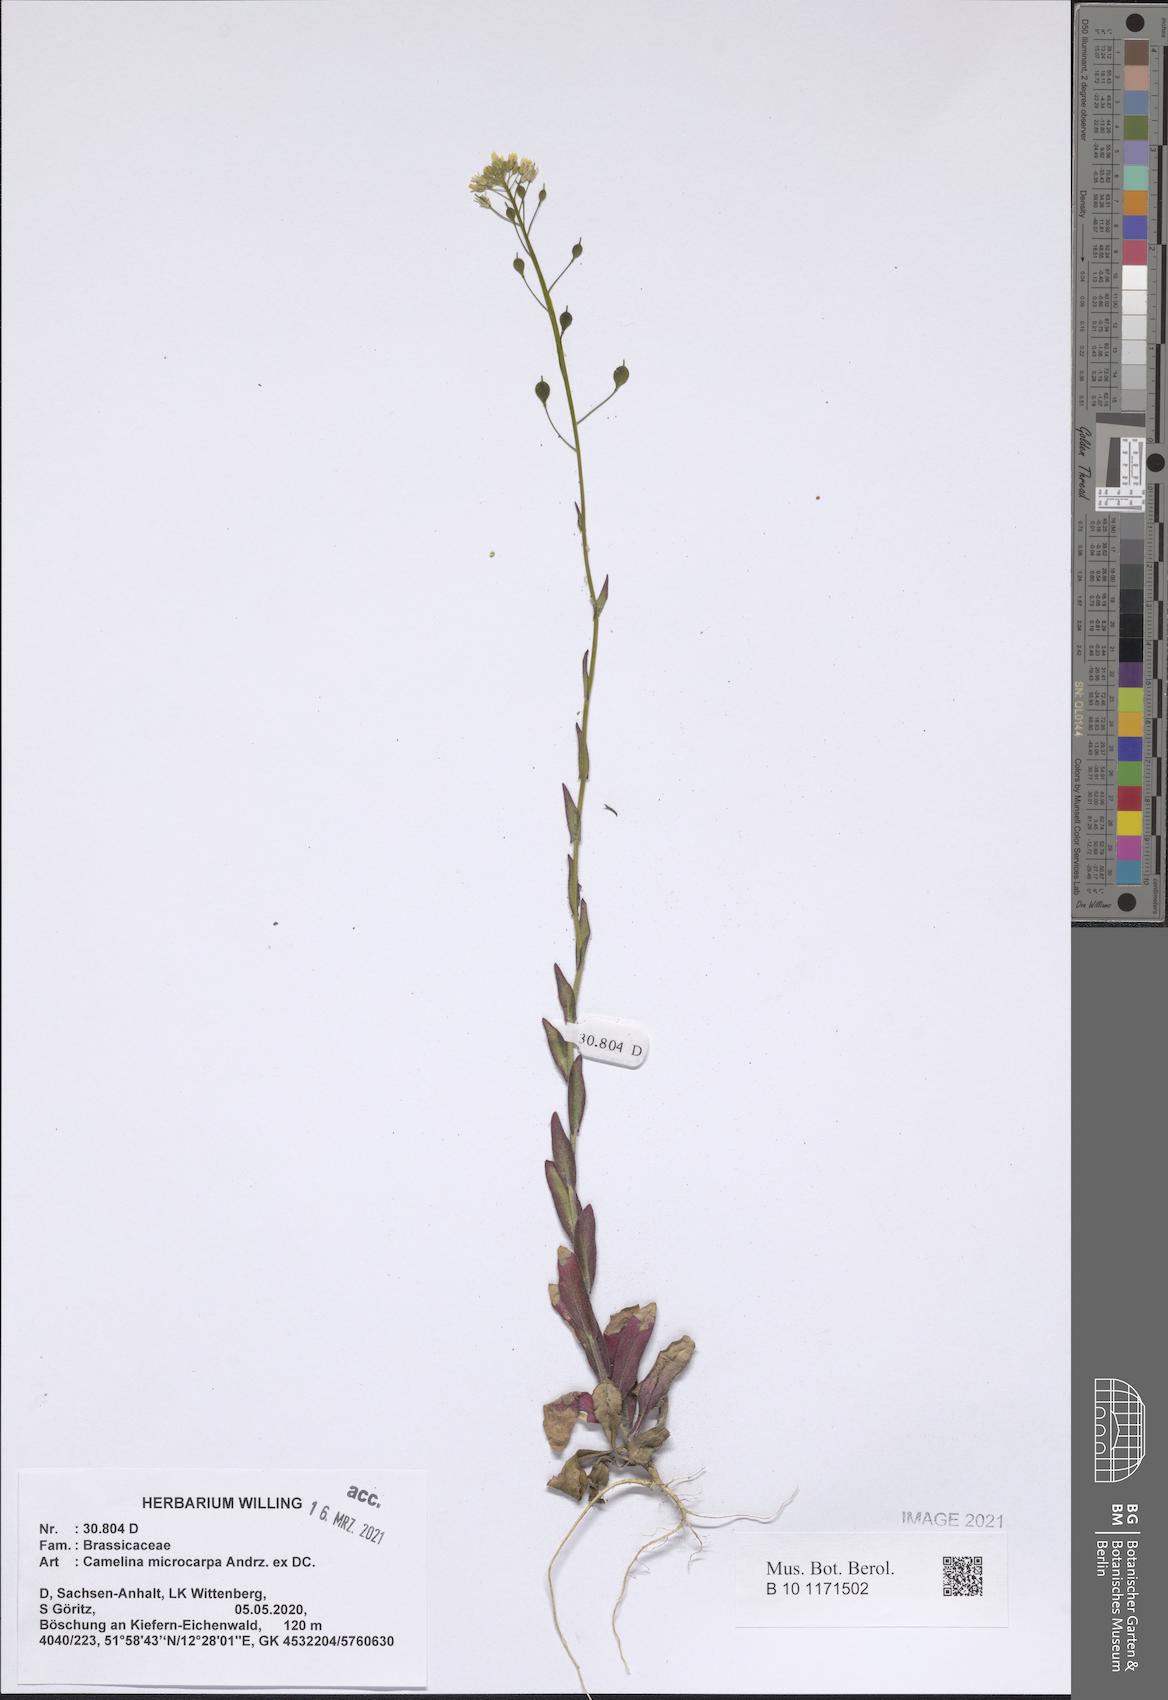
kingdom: Plantae
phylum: Tracheophyta
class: Magnoliopsida
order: Brassicales
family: Brassicaceae
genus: Camelina
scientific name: Camelina microcarpa
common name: Lesser gold-of-pleasure
